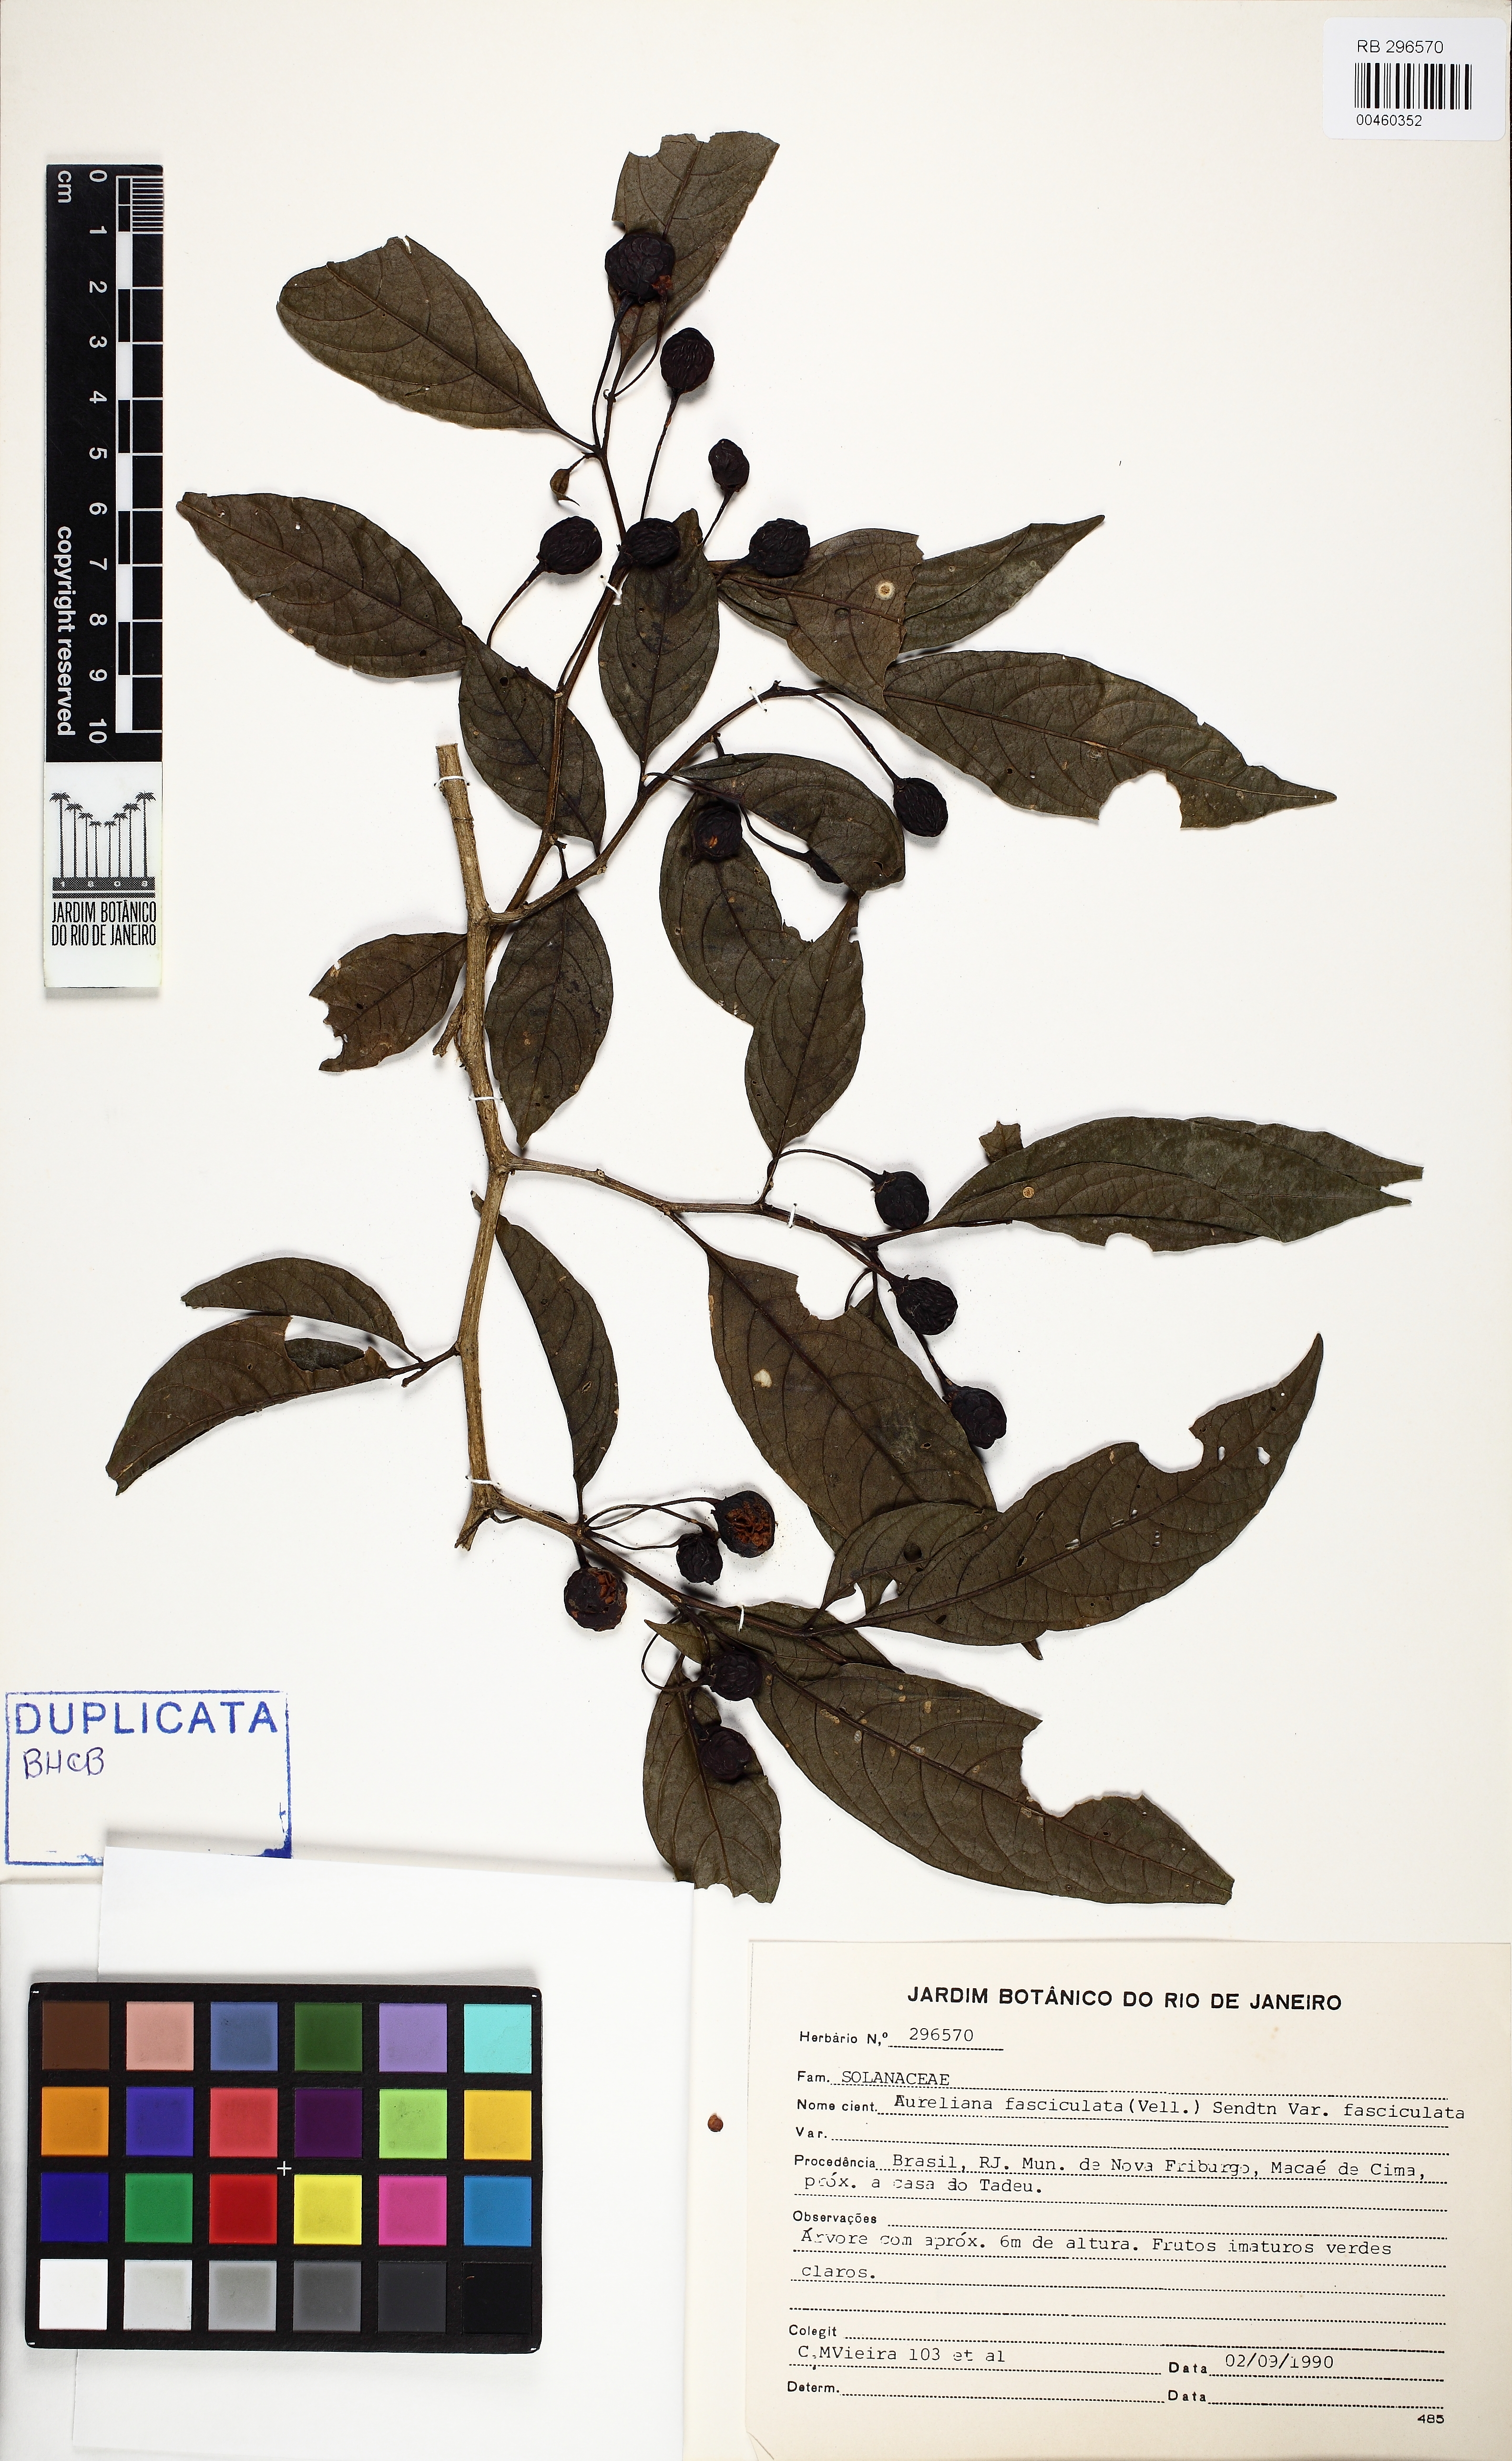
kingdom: Plantae
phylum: Tracheophyta
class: Magnoliopsida
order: Solanales
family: Solanaceae
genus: Athenaea
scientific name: Athenaea fasciculata
